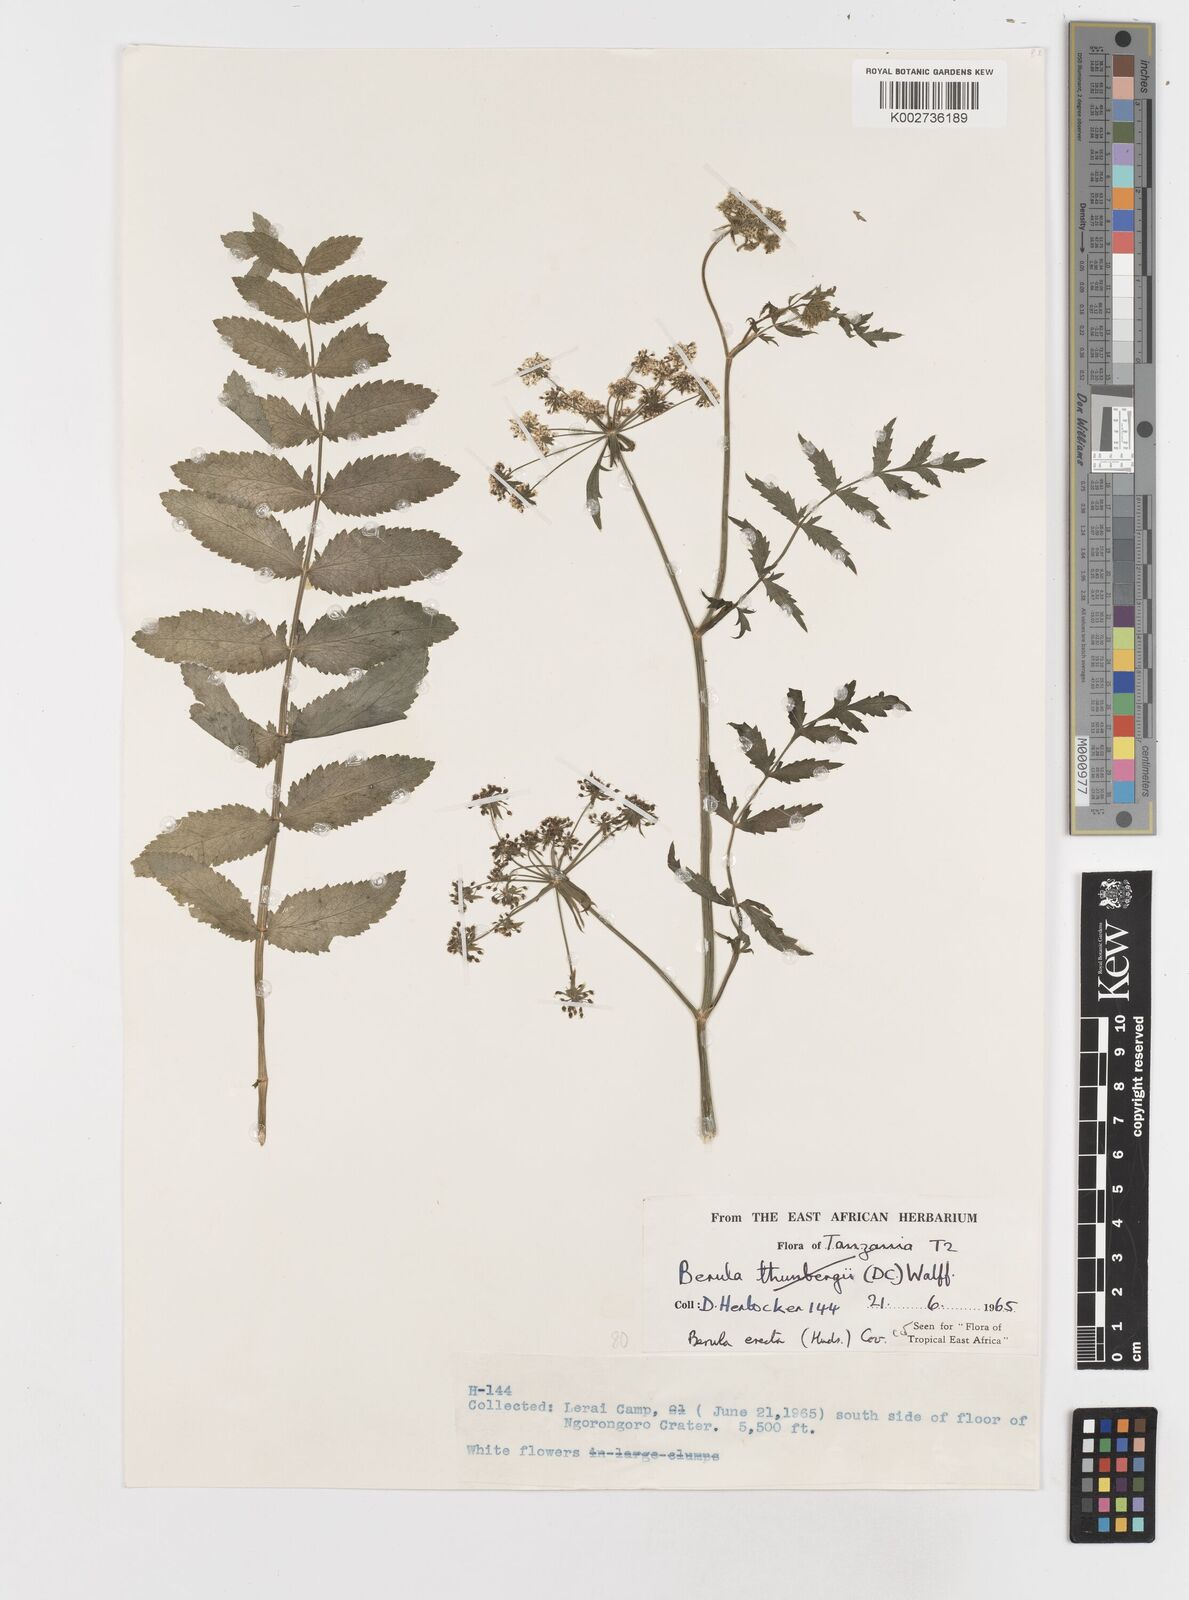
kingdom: Plantae
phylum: Tracheophyta
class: Magnoliopsida
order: Apiales
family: Apiaceae
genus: Berula
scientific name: Berula erecta
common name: Lesser water-parsnip
